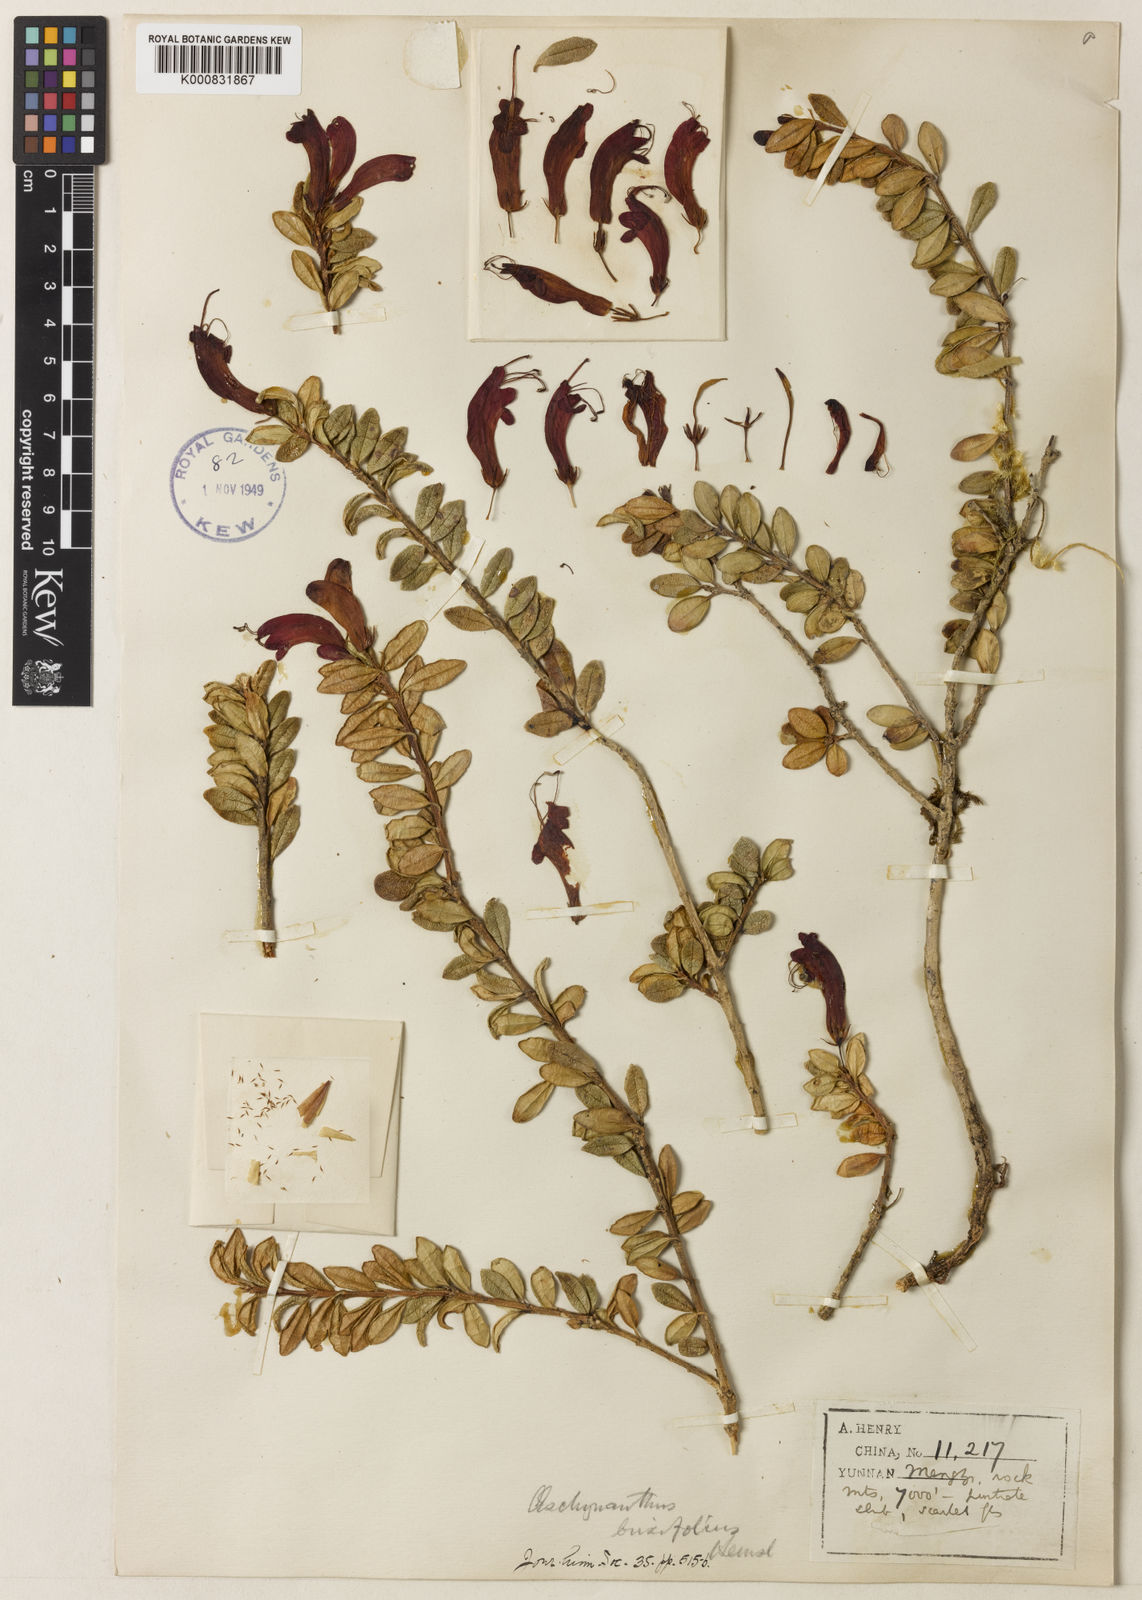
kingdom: Plantae
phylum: Tracheophyta
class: Magnoliopsida
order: Lamiales
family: Gesneriaceae
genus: Aeschynanthus
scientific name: Aeschynanthus buxifolius
